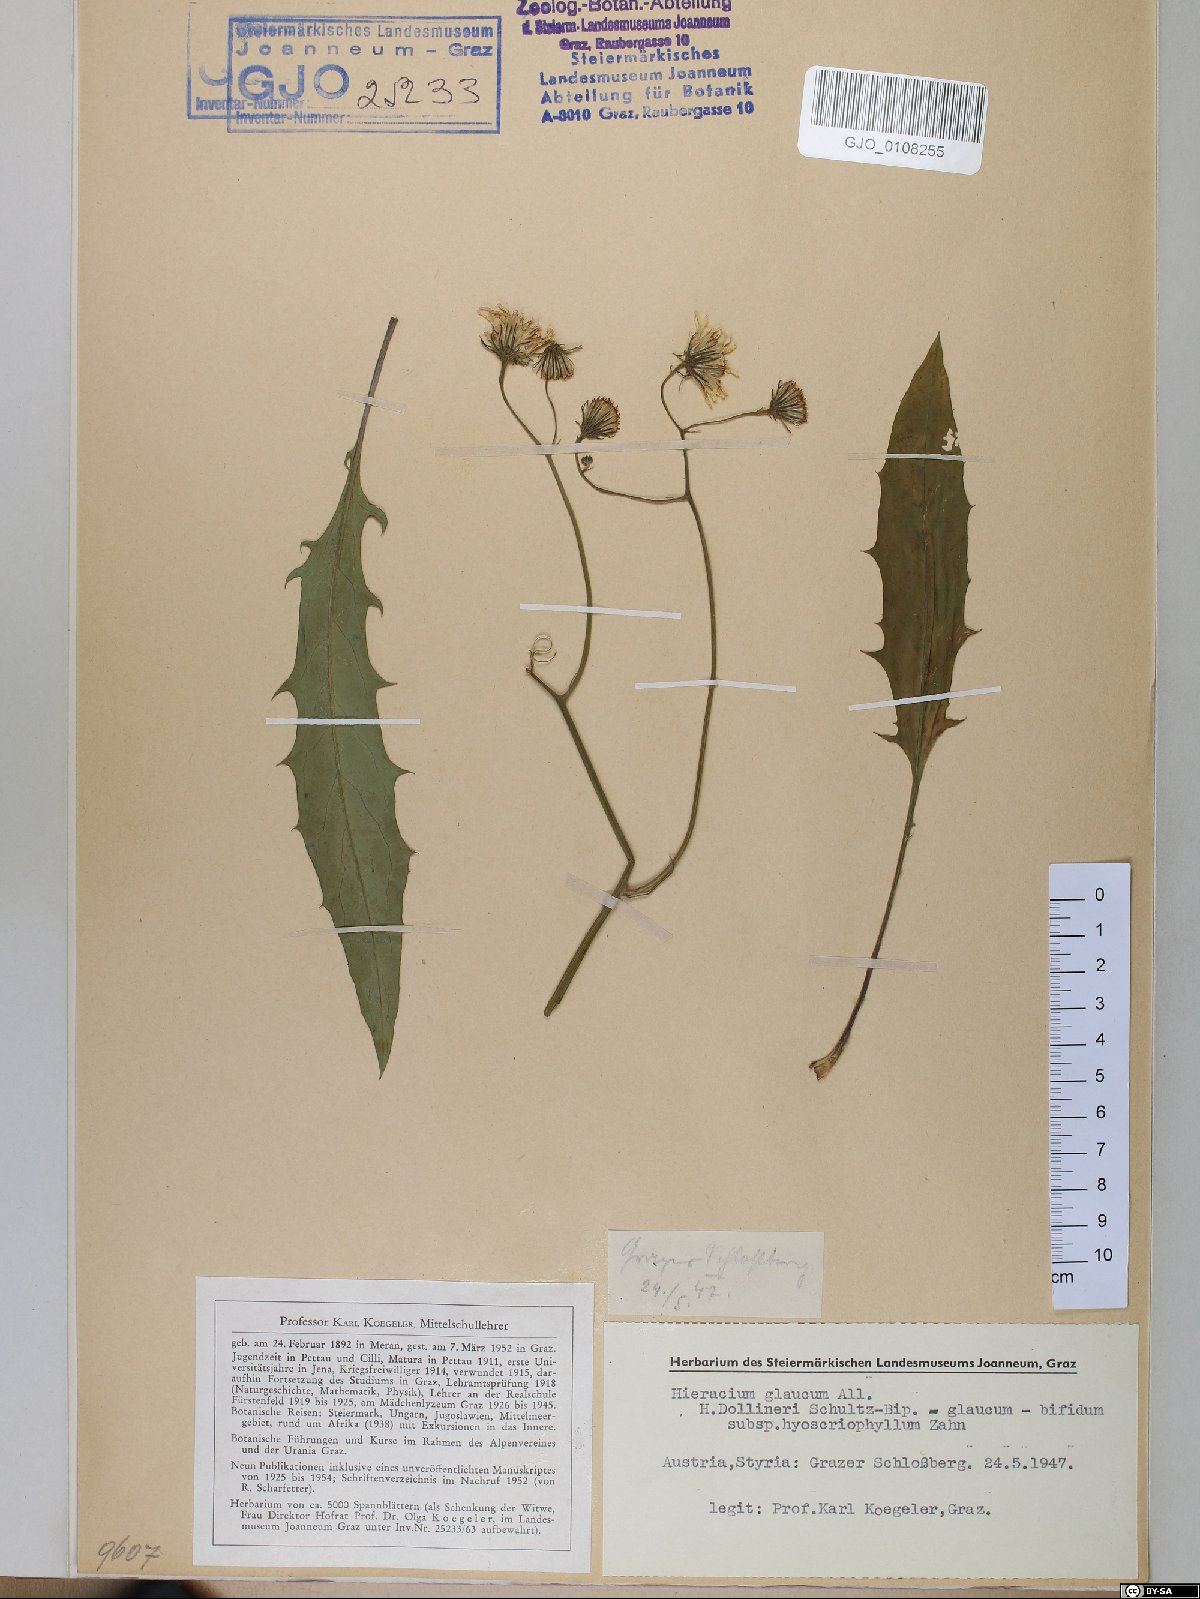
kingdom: Plantae
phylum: Tracheophyta
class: Magnoliopsida
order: Asterales
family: Asteraceae
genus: Hieracium
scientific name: Hieracium dollineri
